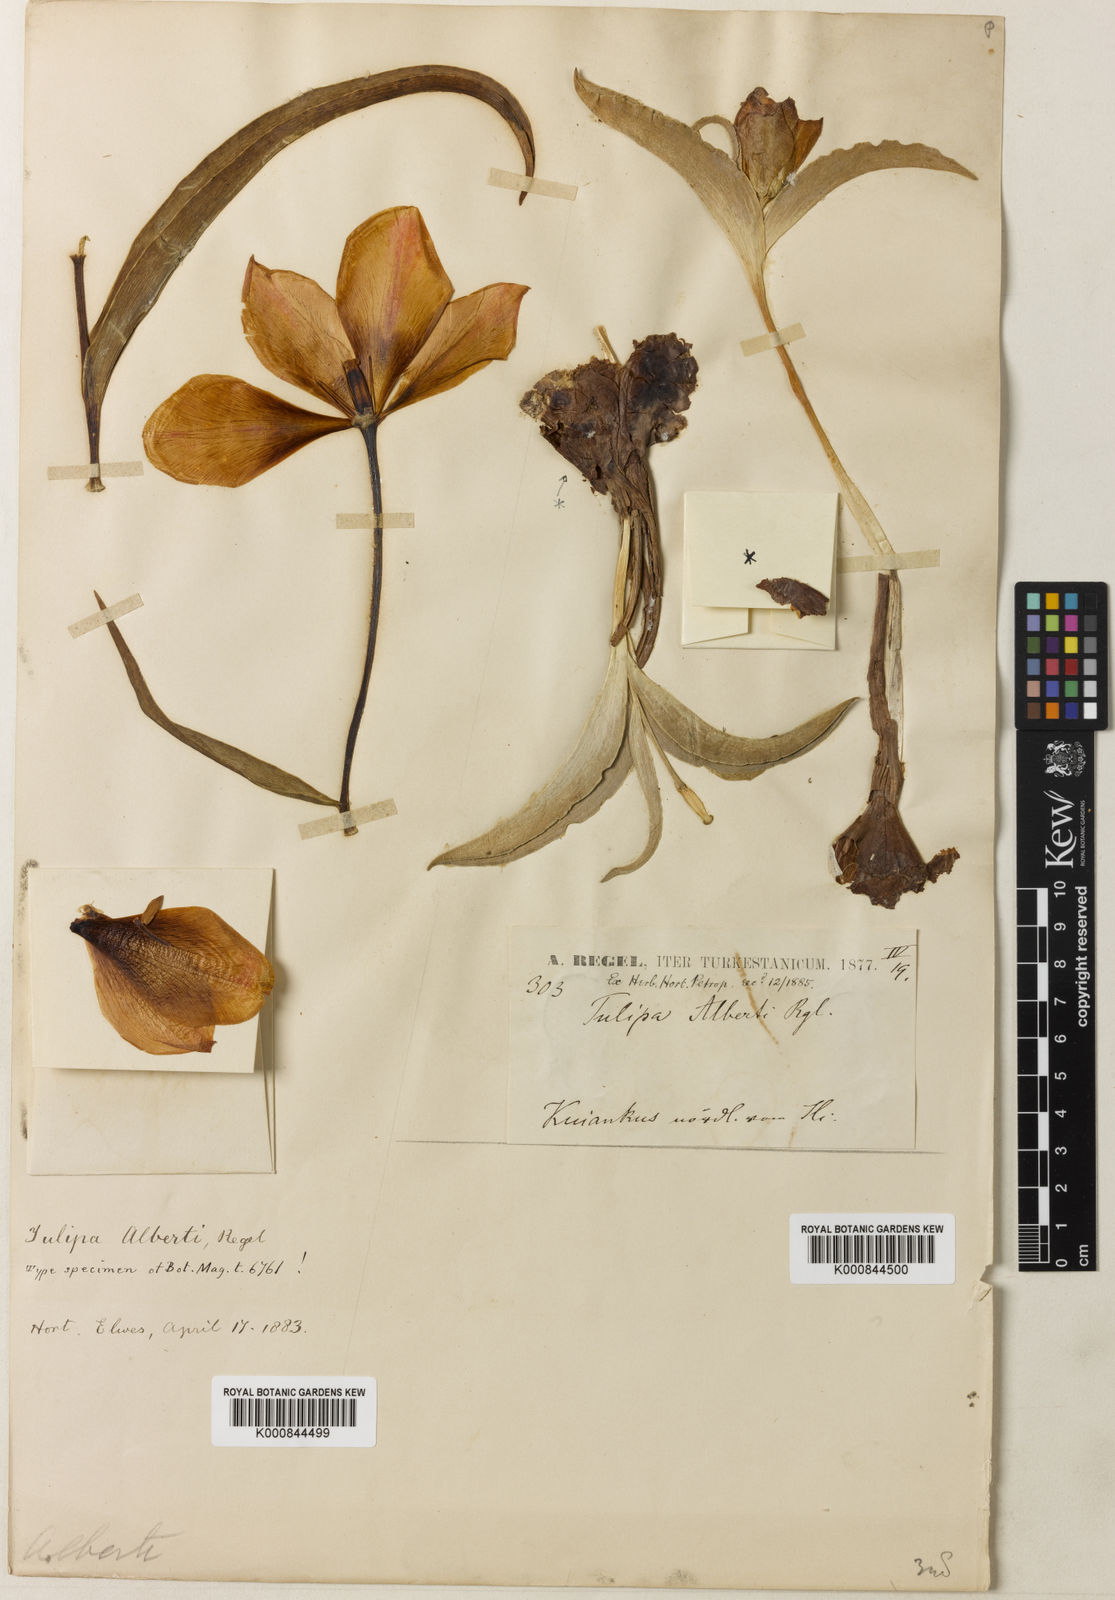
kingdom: Plantae
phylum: Tracheophyta
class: Liliopsida
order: Liliales
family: Liliaceae
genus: Tulipa
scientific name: Tulipa alberti
